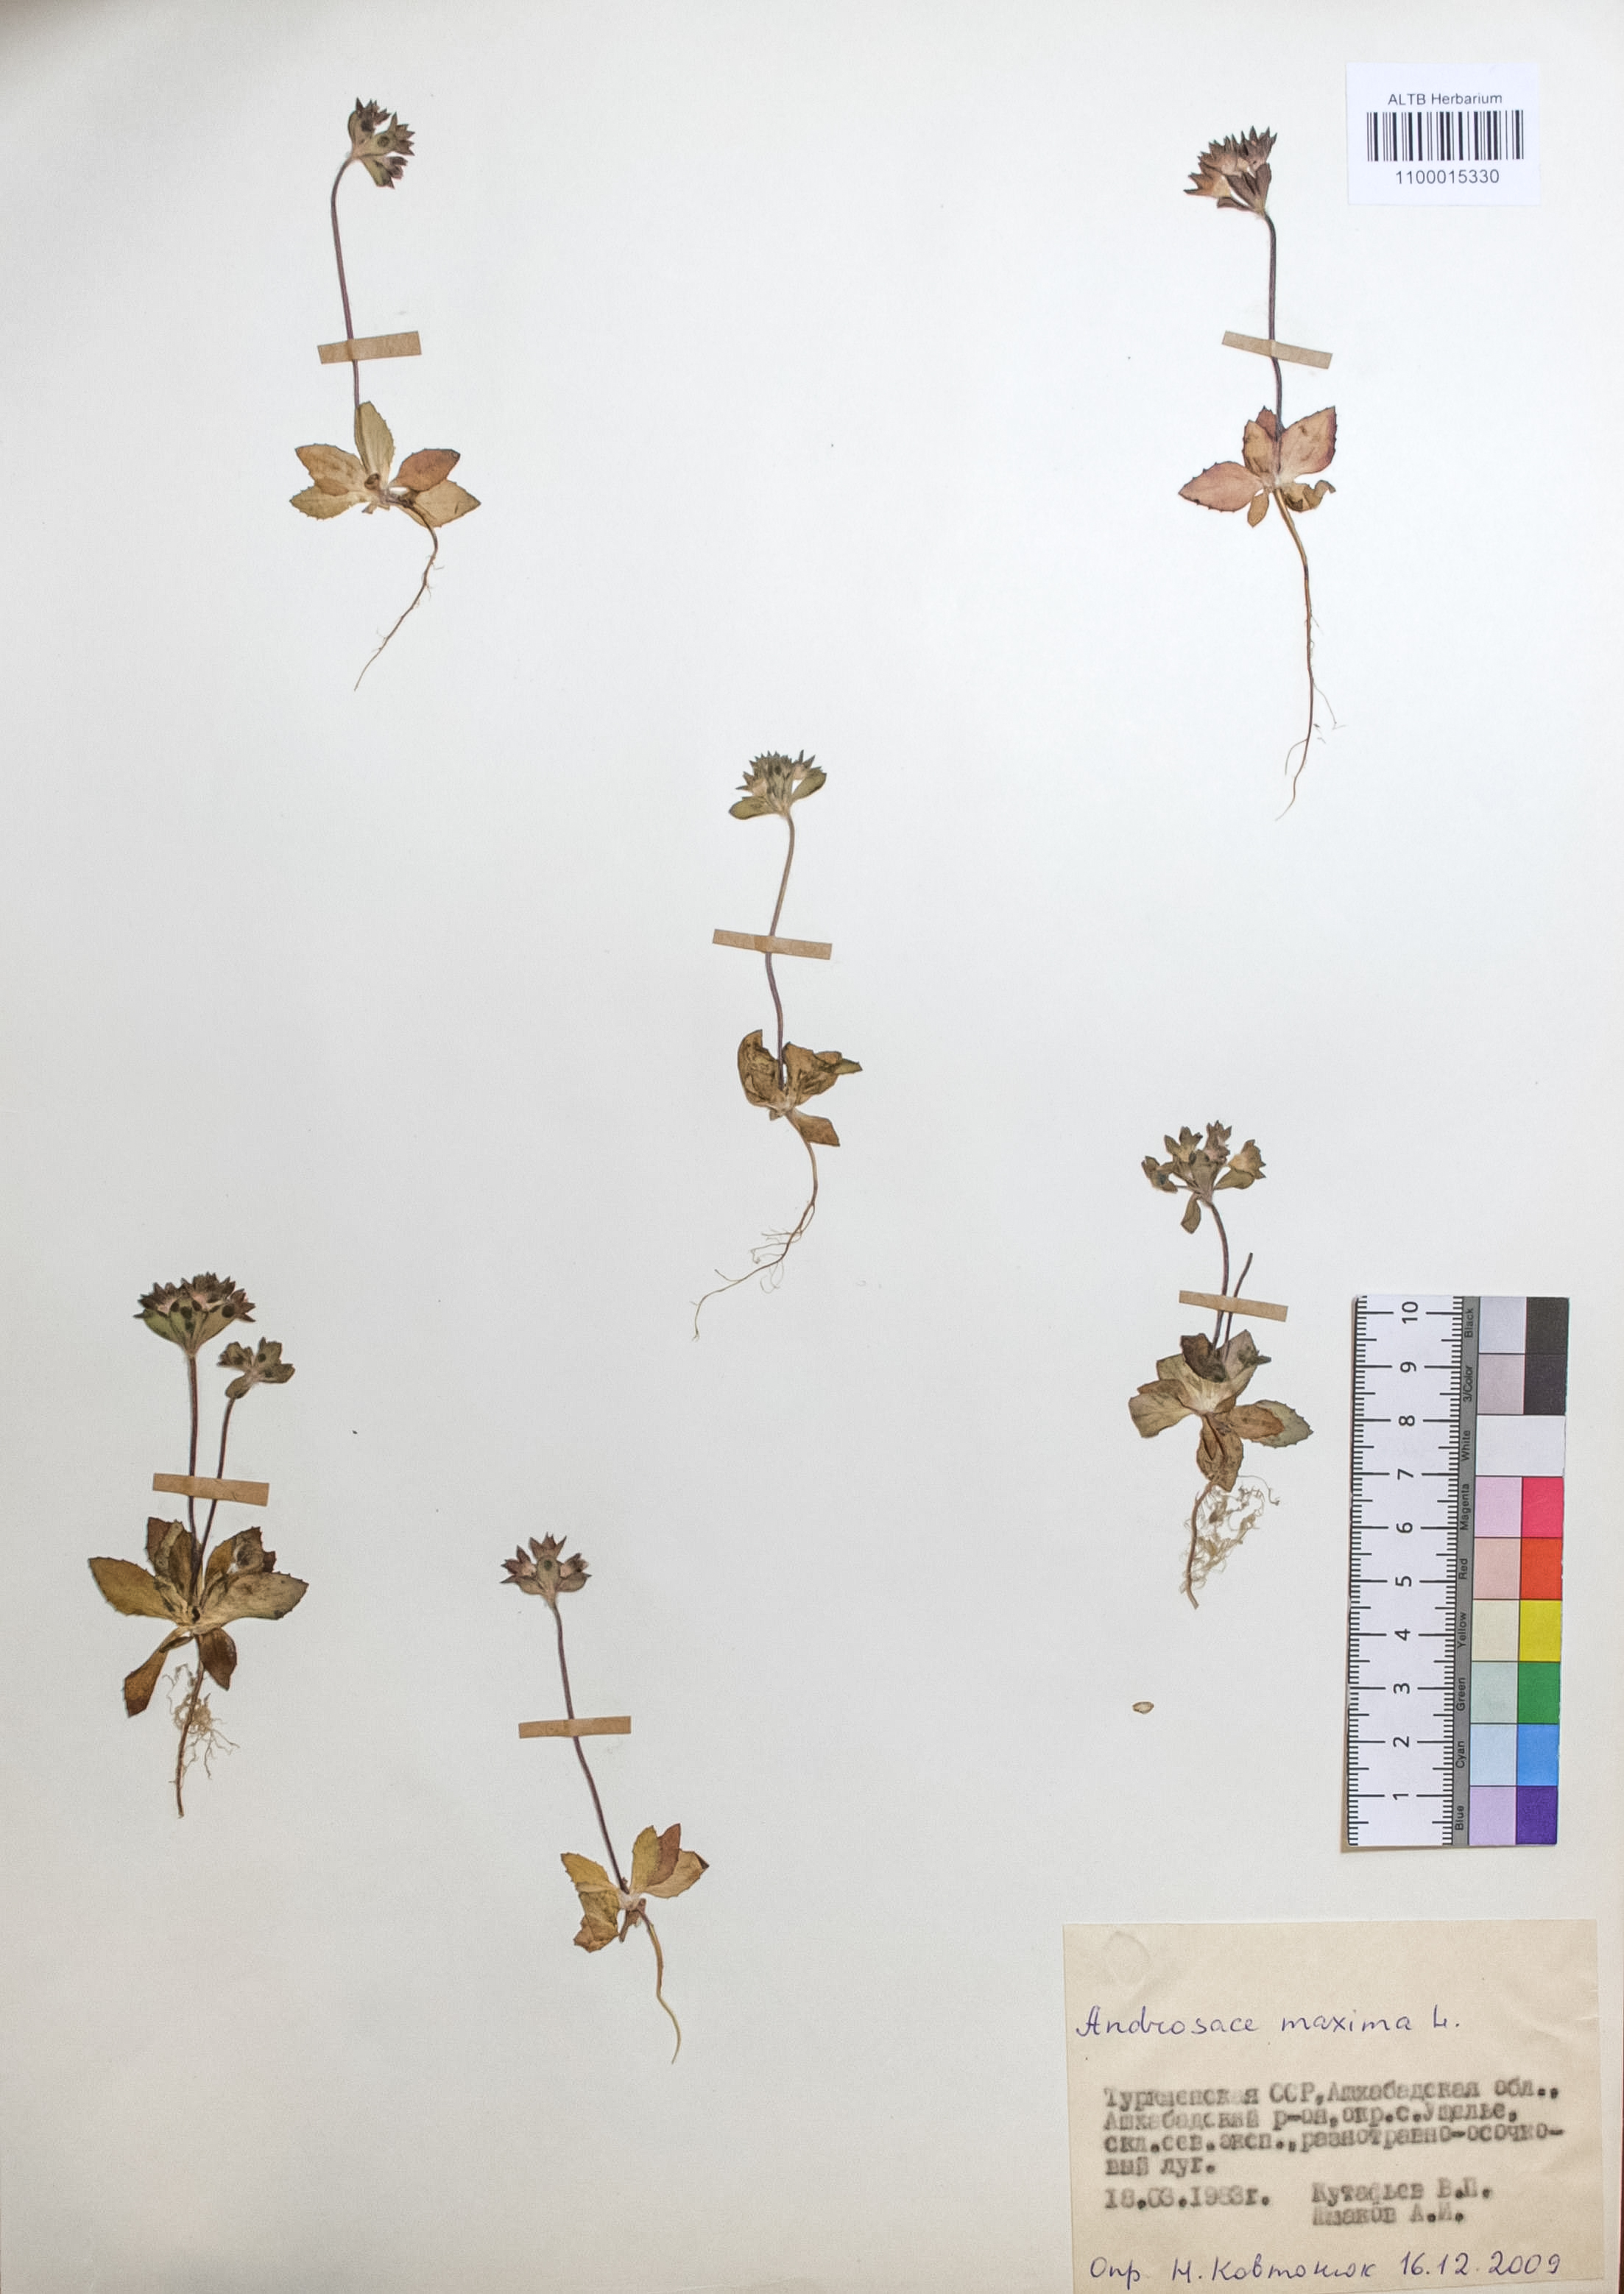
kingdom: Plantae
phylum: Tracheophyta
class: Magnoliopsida
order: Ericales
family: Primulaceae
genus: Androsace
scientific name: Androsace maxima
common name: Annual androsace
